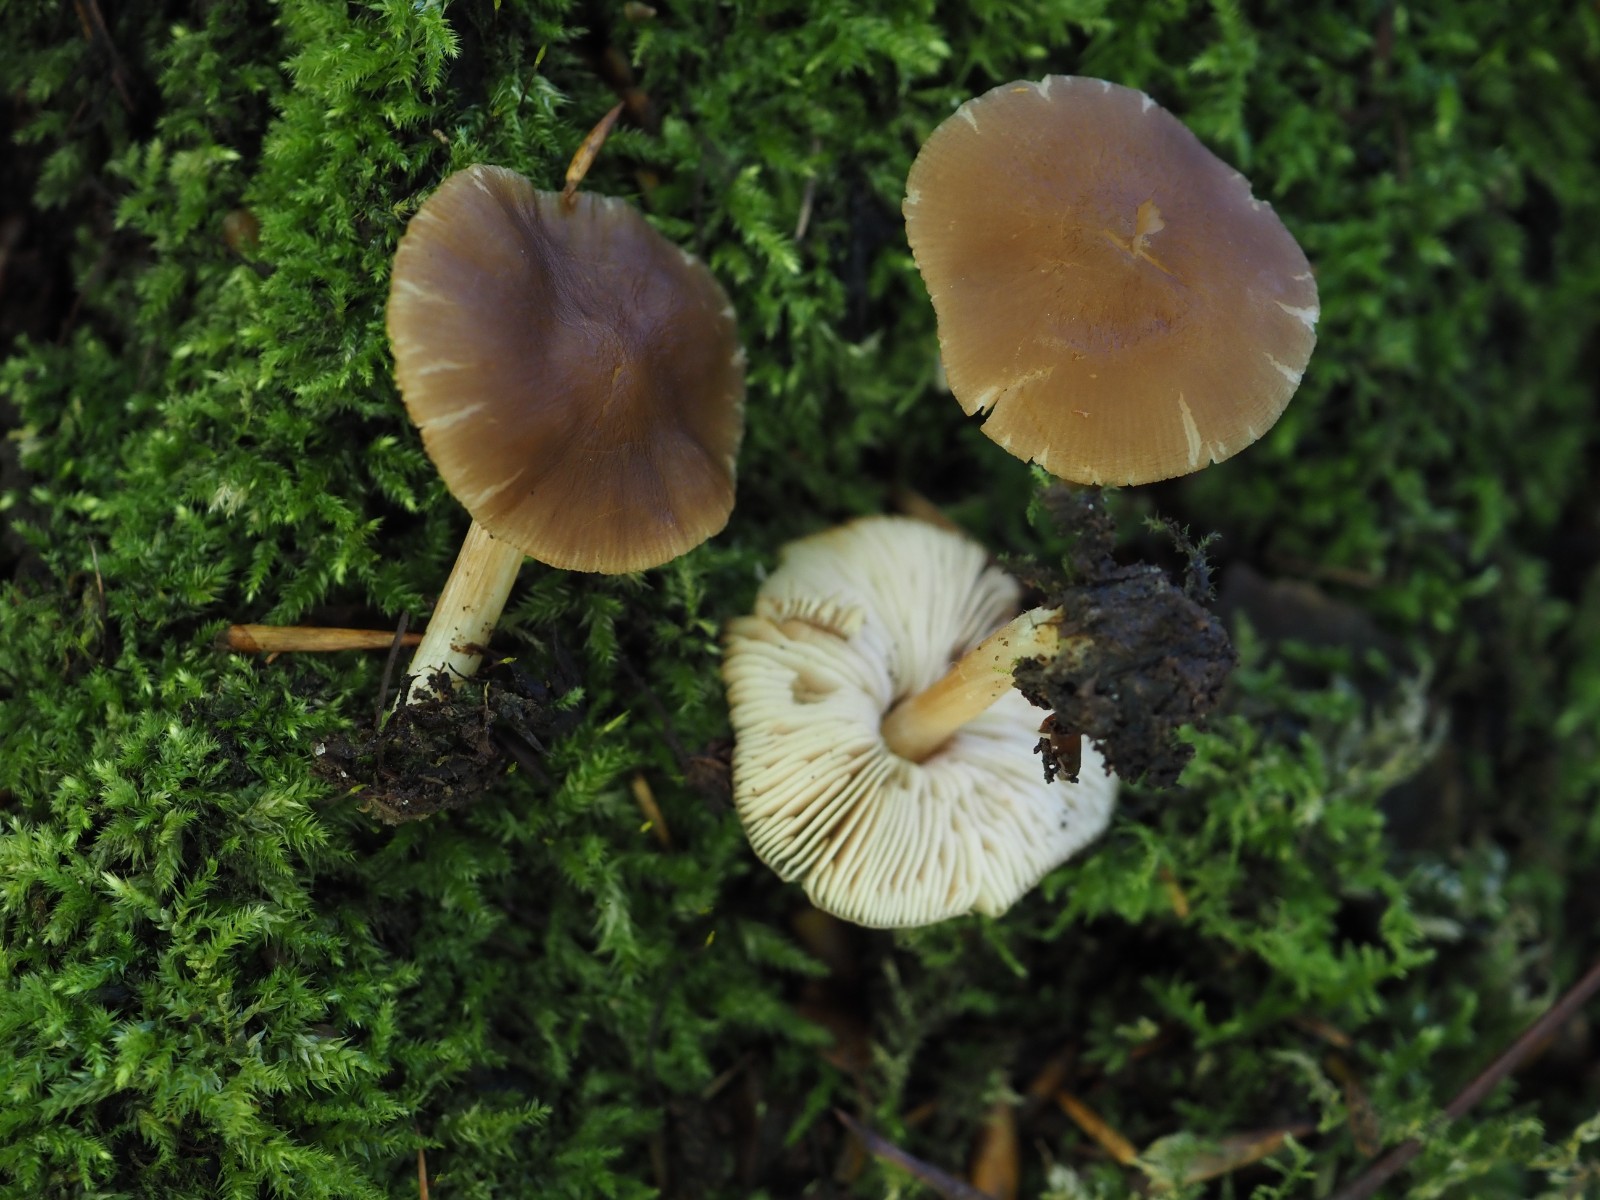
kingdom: Fungi
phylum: Basidiomycota
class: Agaricomycetes
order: Agaricales
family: Pluteaceae
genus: Pluteus
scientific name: Pluteus phlebophorus
